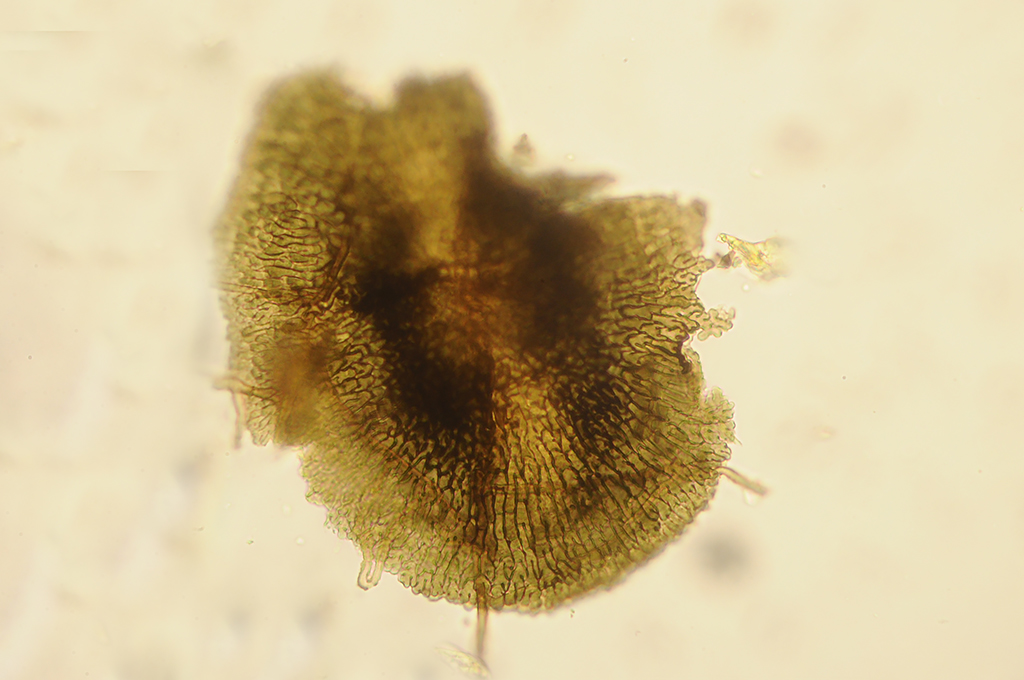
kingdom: Fungi
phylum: Ascomycota
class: Dothideomycetes
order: Microthyriales
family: Microthyriaceae
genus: Microthyrium
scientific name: Microthyrium ciliatum
